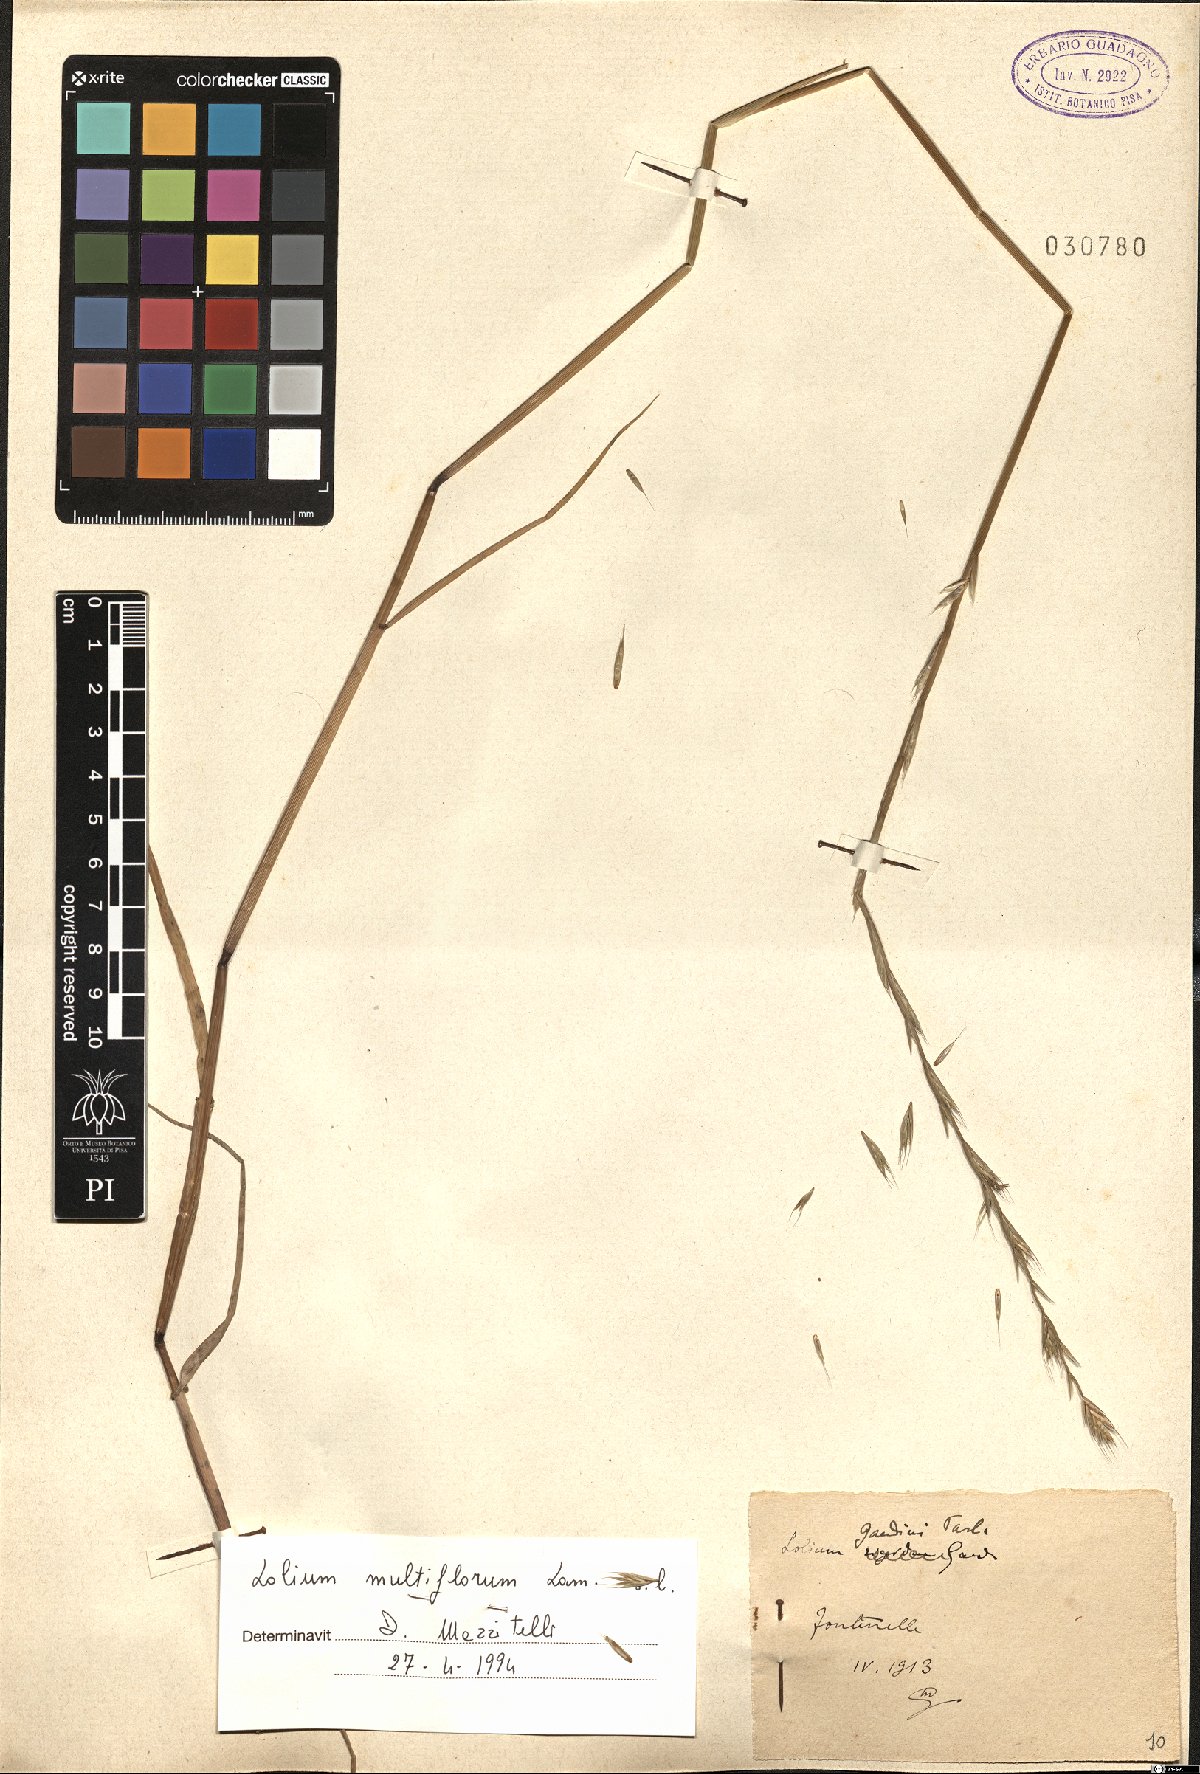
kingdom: Plantae
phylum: Tracheophyta
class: Liliopsida
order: Poales
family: Poaceae
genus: Lolium
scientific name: Lolium multiflorum
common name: Annual ryegrass
